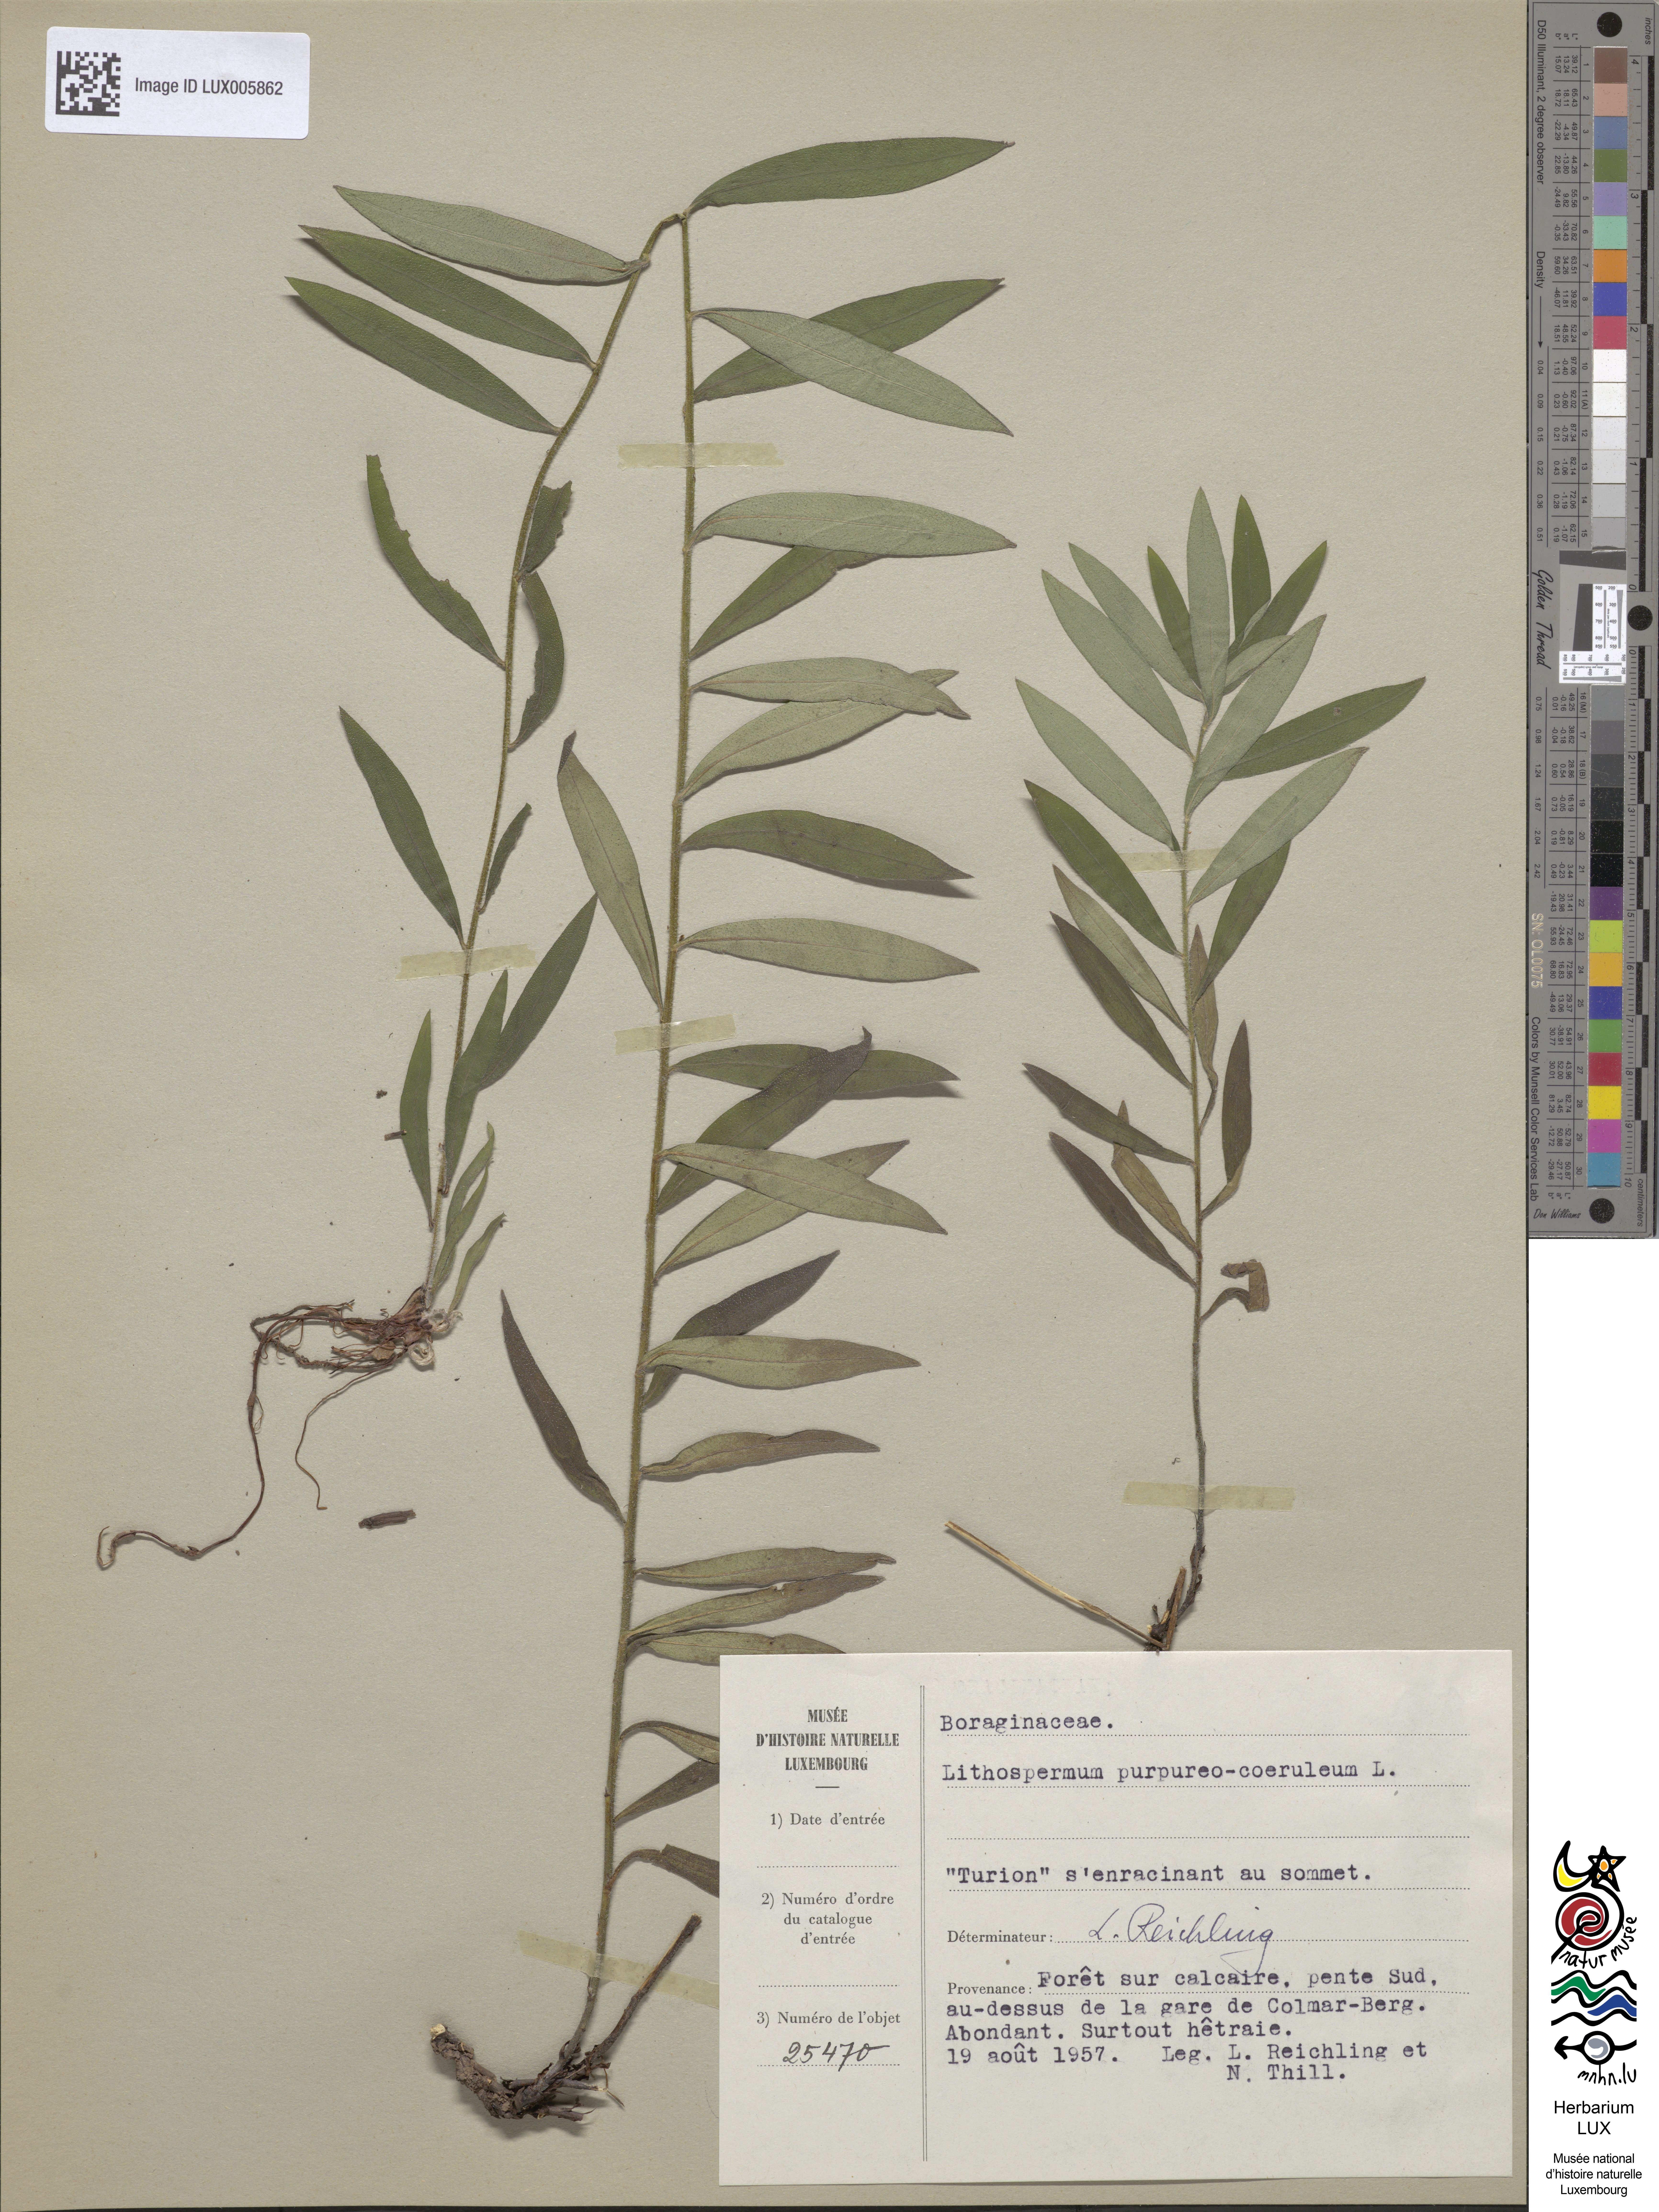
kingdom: Plantae
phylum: Tracheophyta
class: Magnoliopsida
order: Boraginales
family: Boraginaceae
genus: Aegonychon
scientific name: Aegonychon purpurocaeruleum
